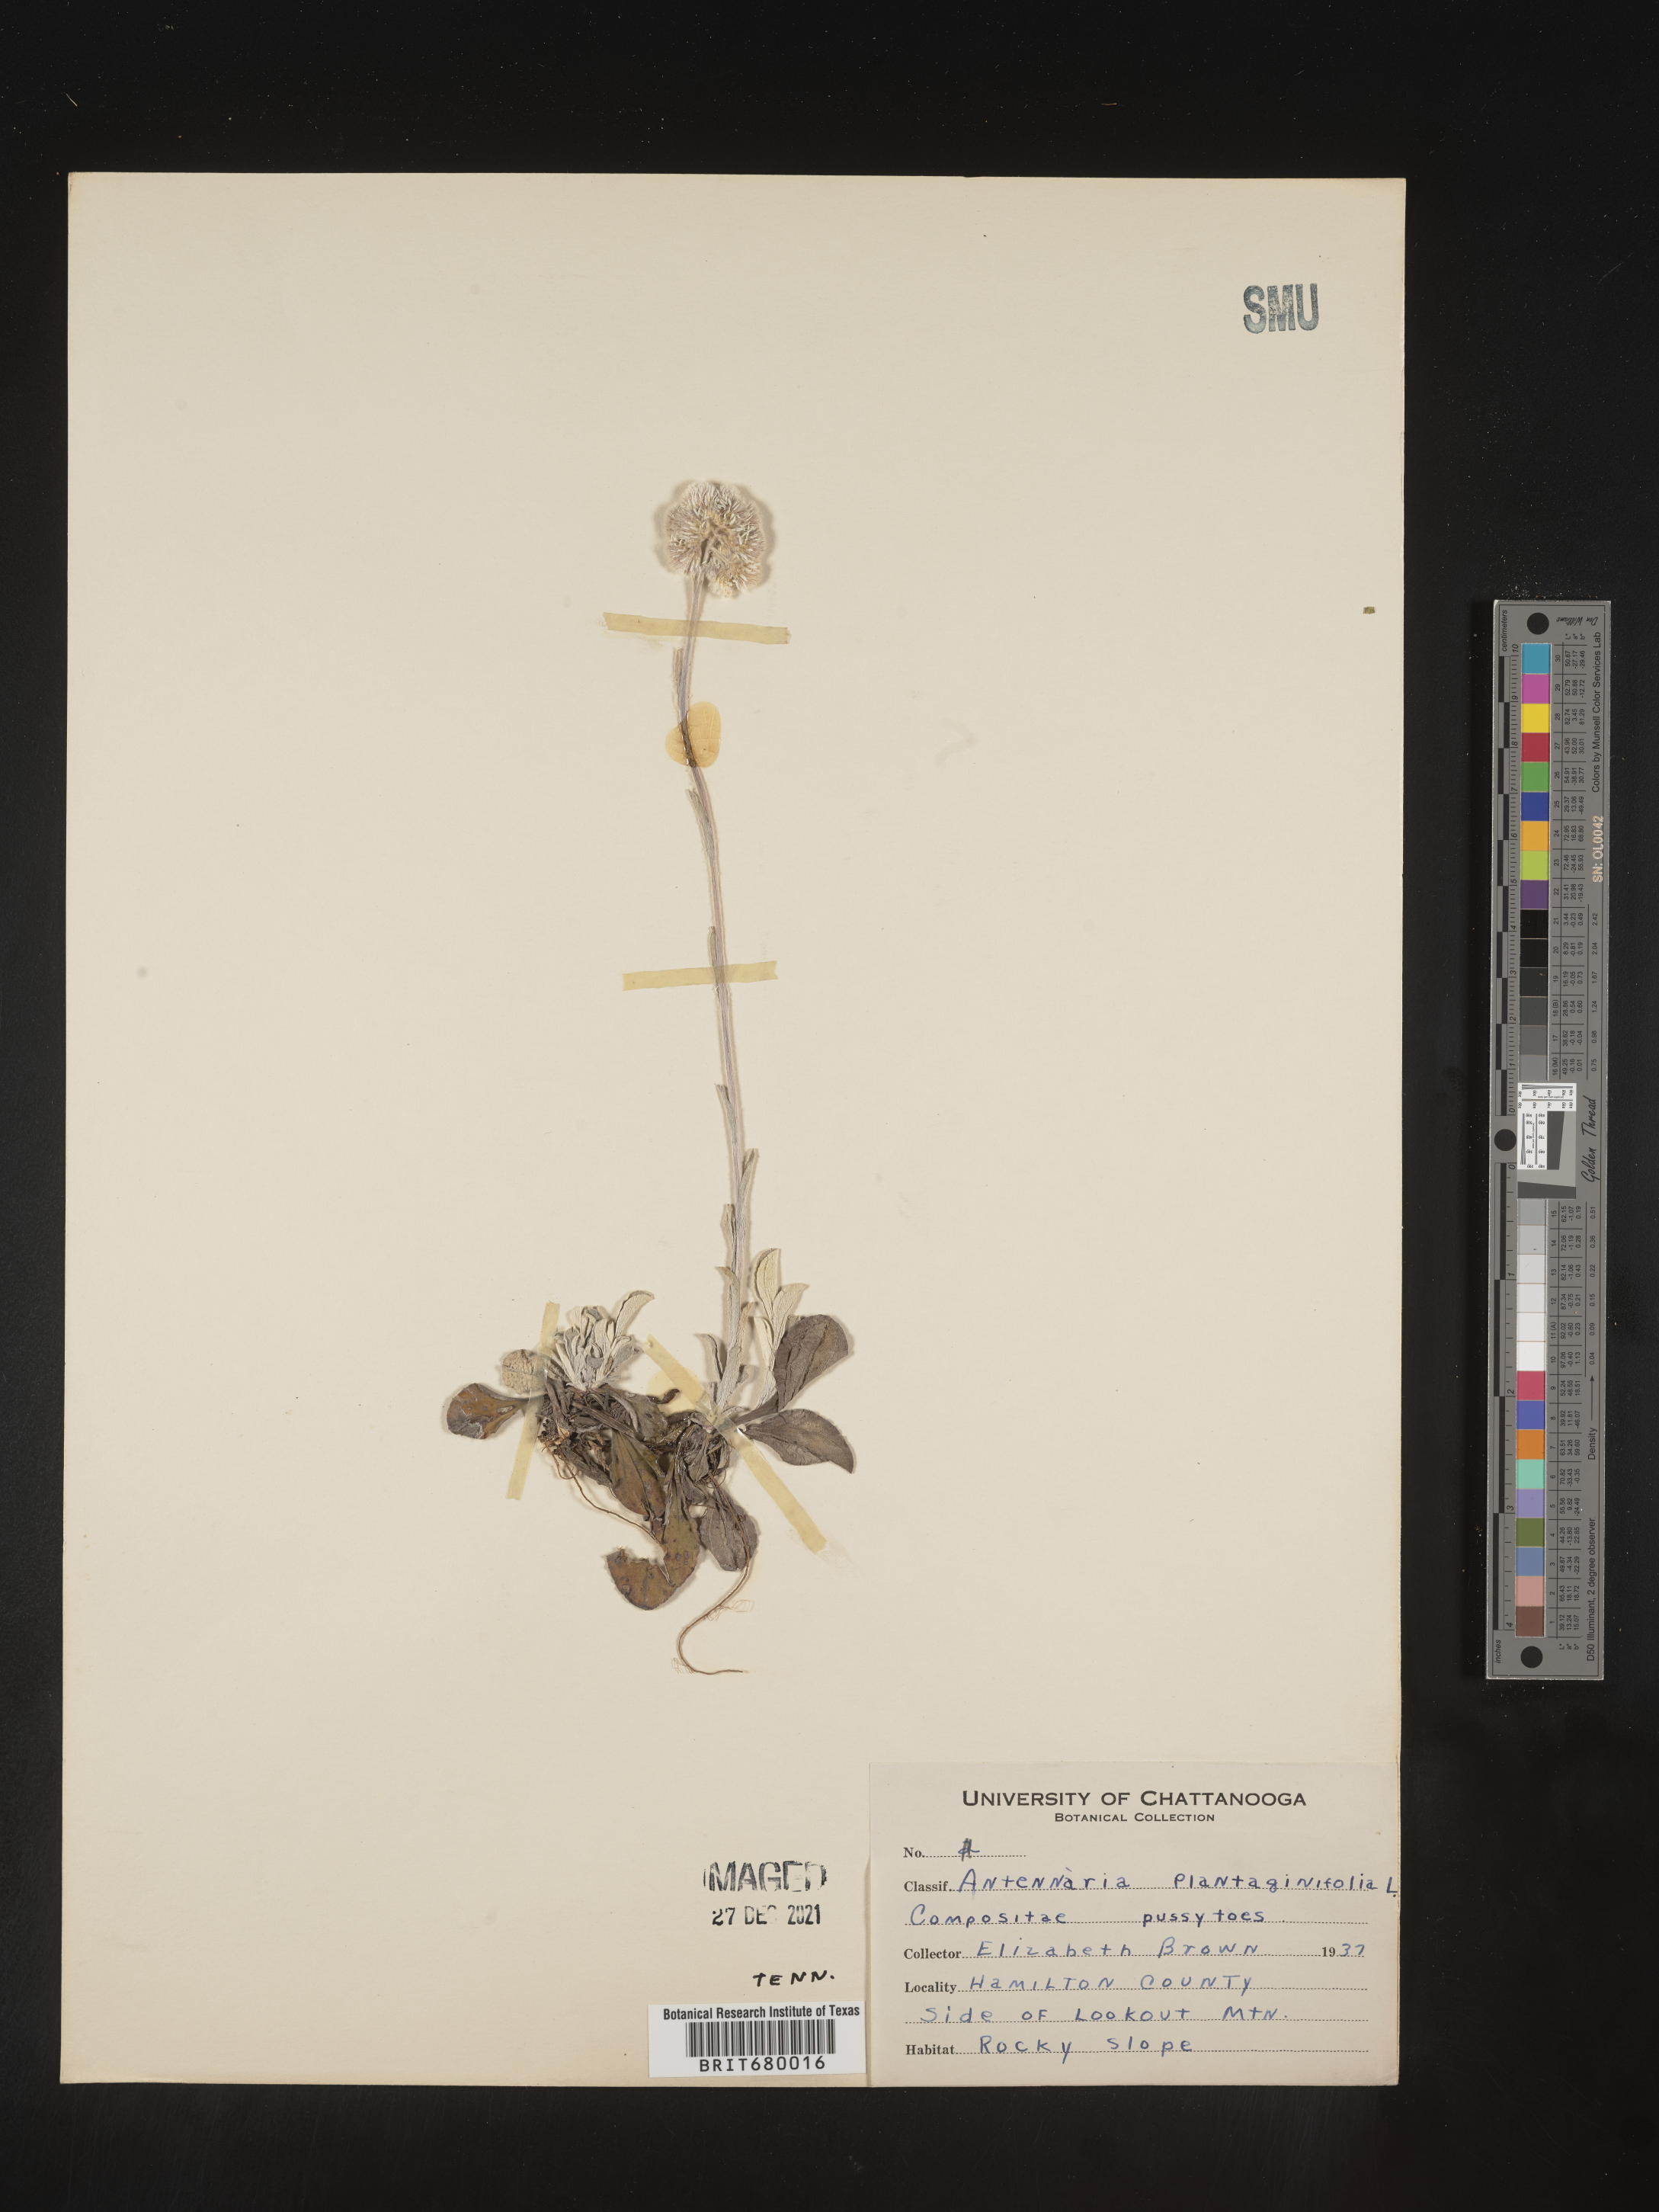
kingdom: Plantae
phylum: Tracheophyta
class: Magnoliopsida
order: Asterales
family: Asteraceae
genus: Antennaria
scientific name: Antennaria plantaginifolia
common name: Plantain-leaved pussytoes
